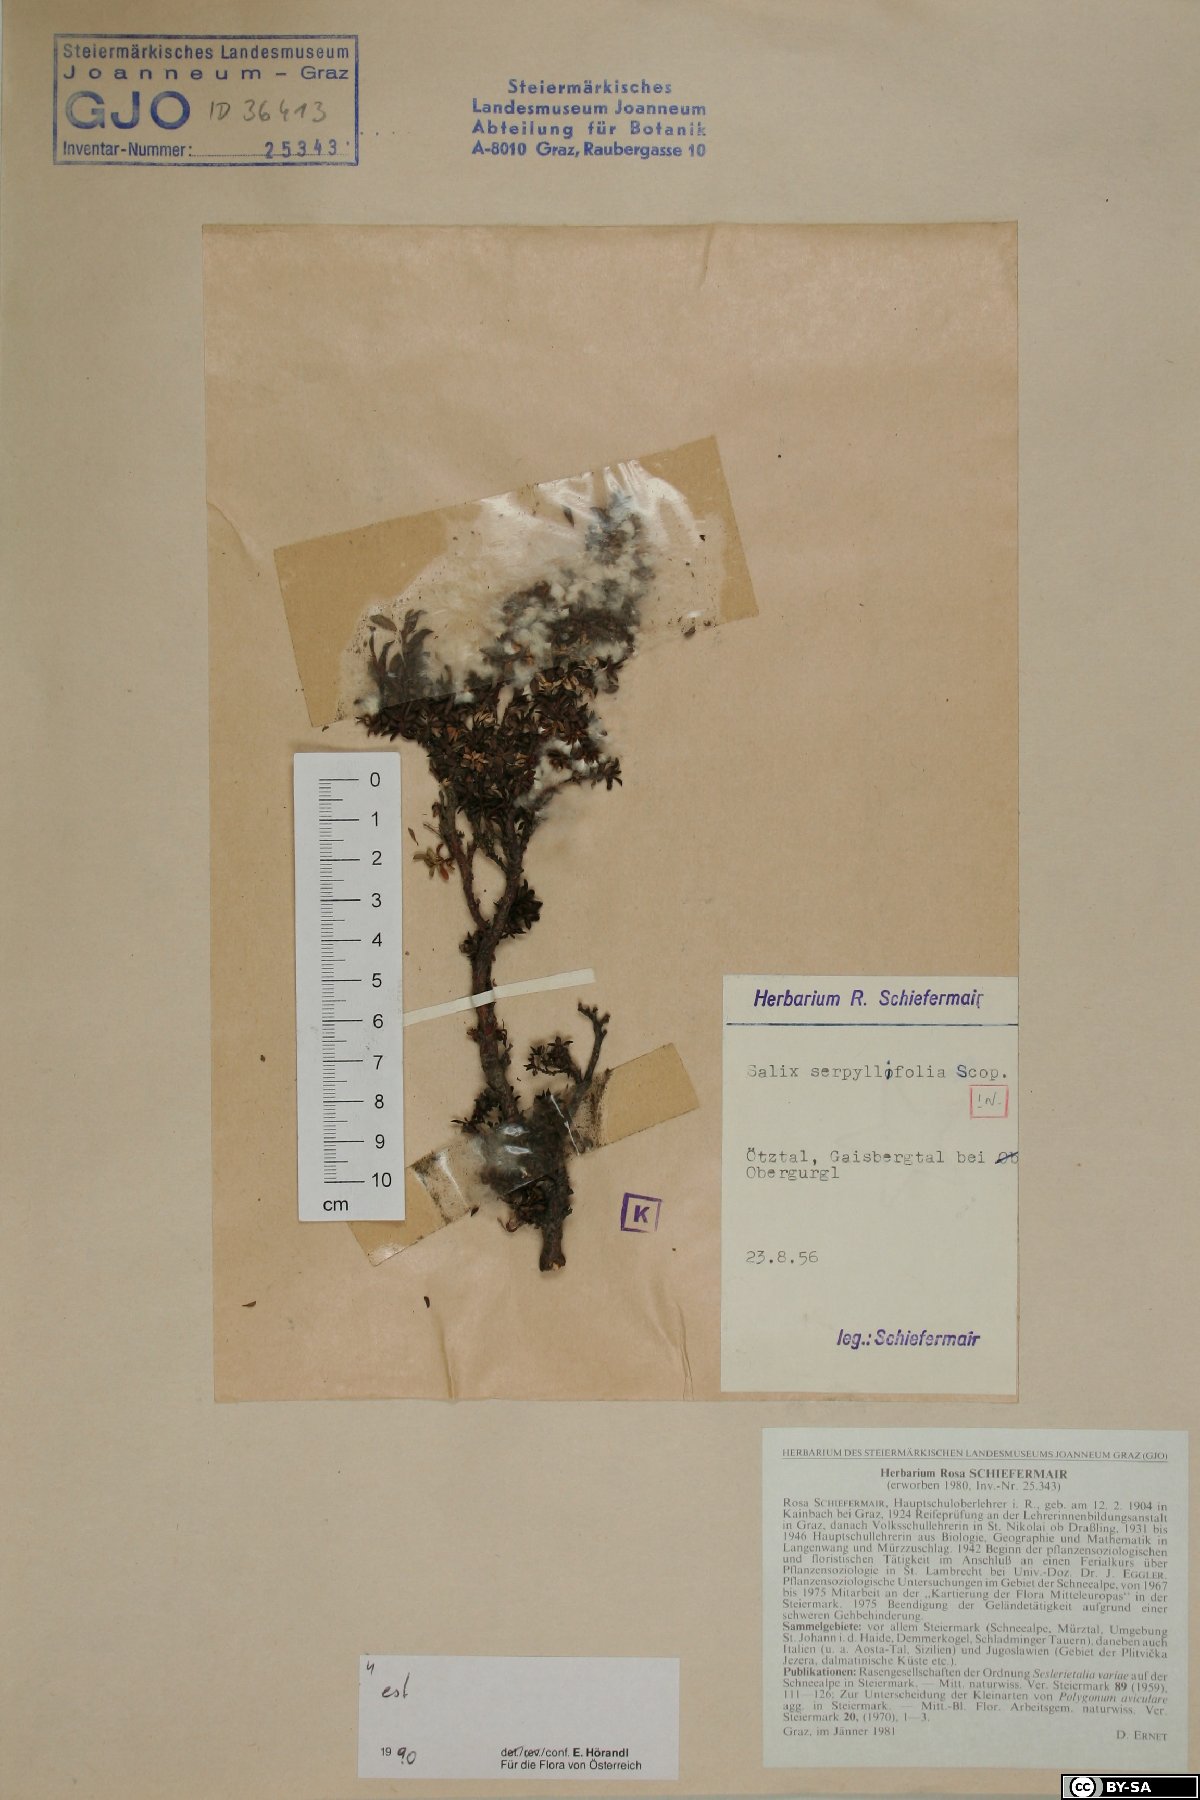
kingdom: Plantae
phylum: Tracheophyta
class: Magnoliopsida
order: Malpighiales
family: Salicaceae
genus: Salix
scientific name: Salix serpillifolia
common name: Thyme-leaf willow
